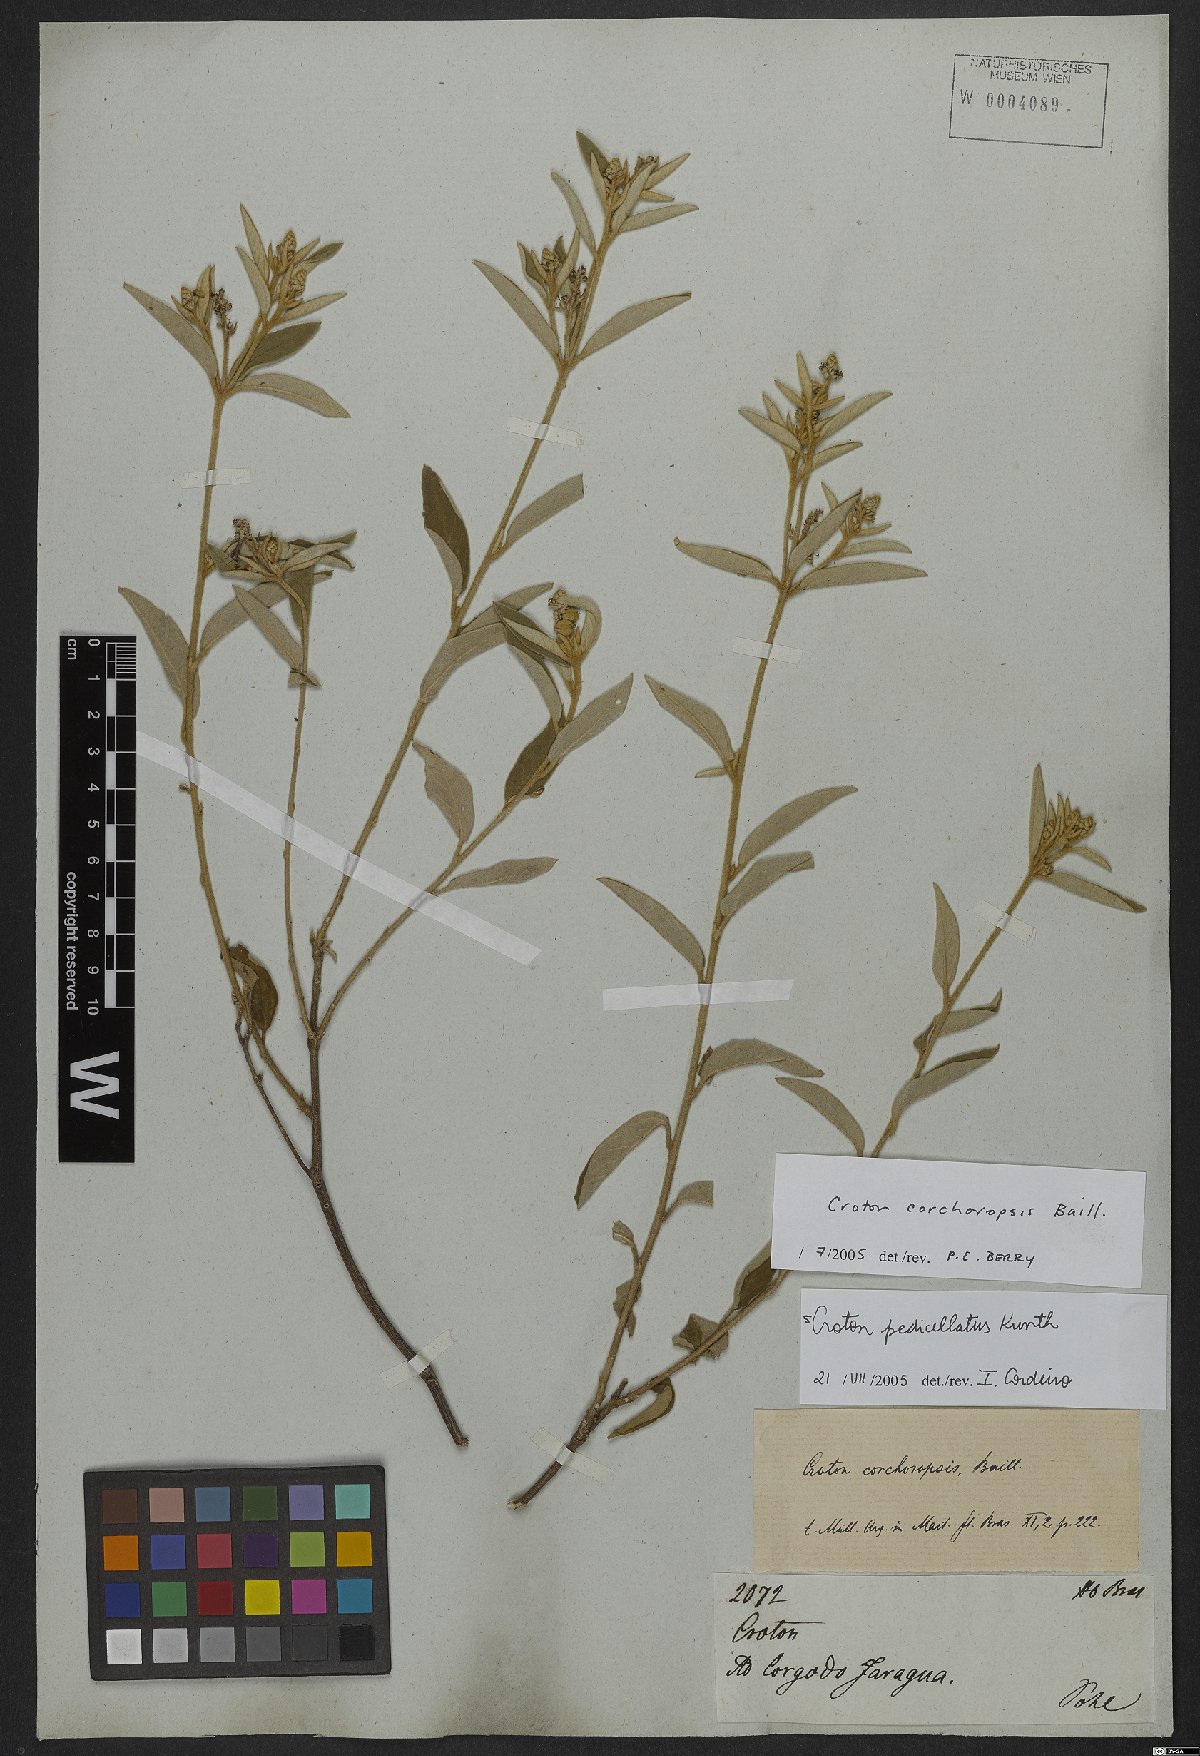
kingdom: Plantae
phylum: Tracheophyta
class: Magnoliopsida
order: Malpighiales
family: Euphorbiaceae
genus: Croton
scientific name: Croton corchoropsis
